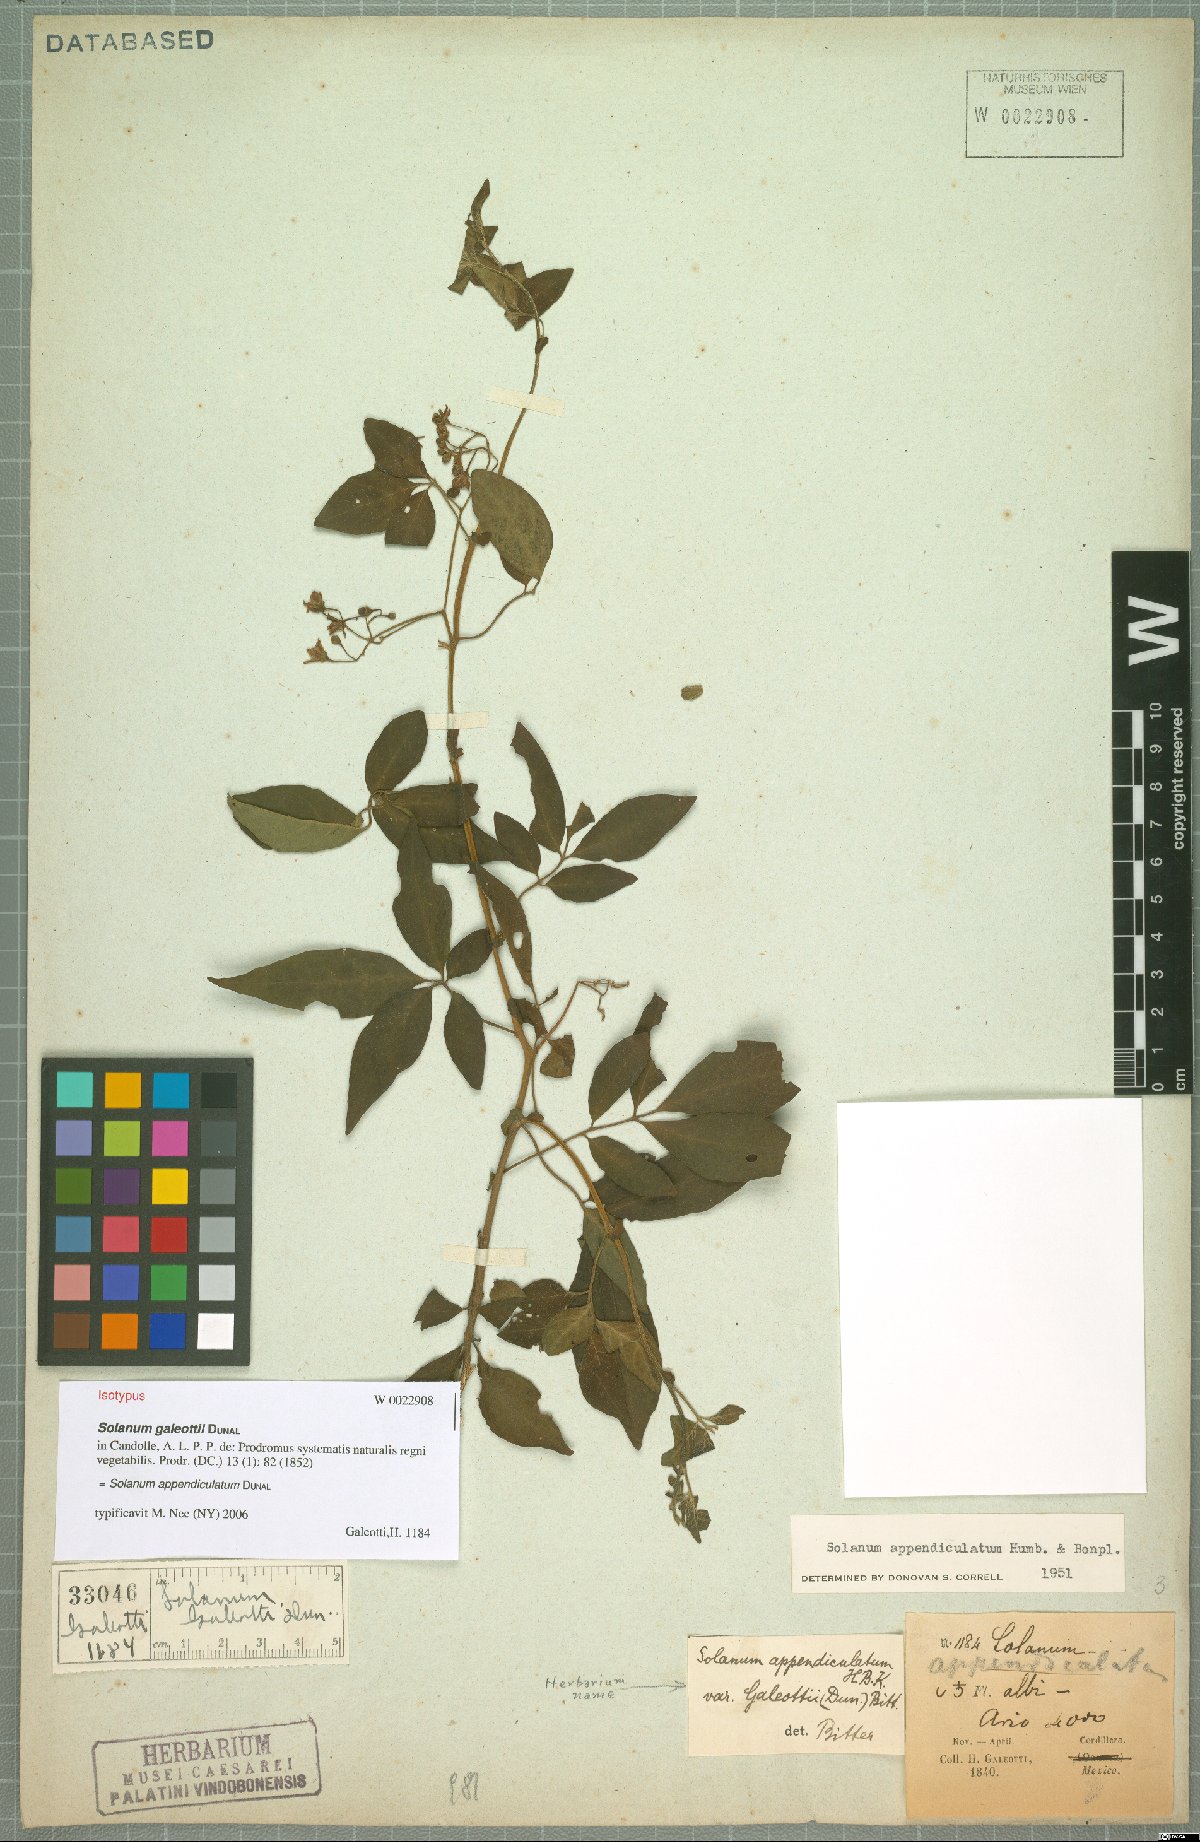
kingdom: Plantae
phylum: Tracheophyta
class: Magnoliopsida
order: Solanales
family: Solanaceae
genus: Solanum
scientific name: Solanum appendiculatum
